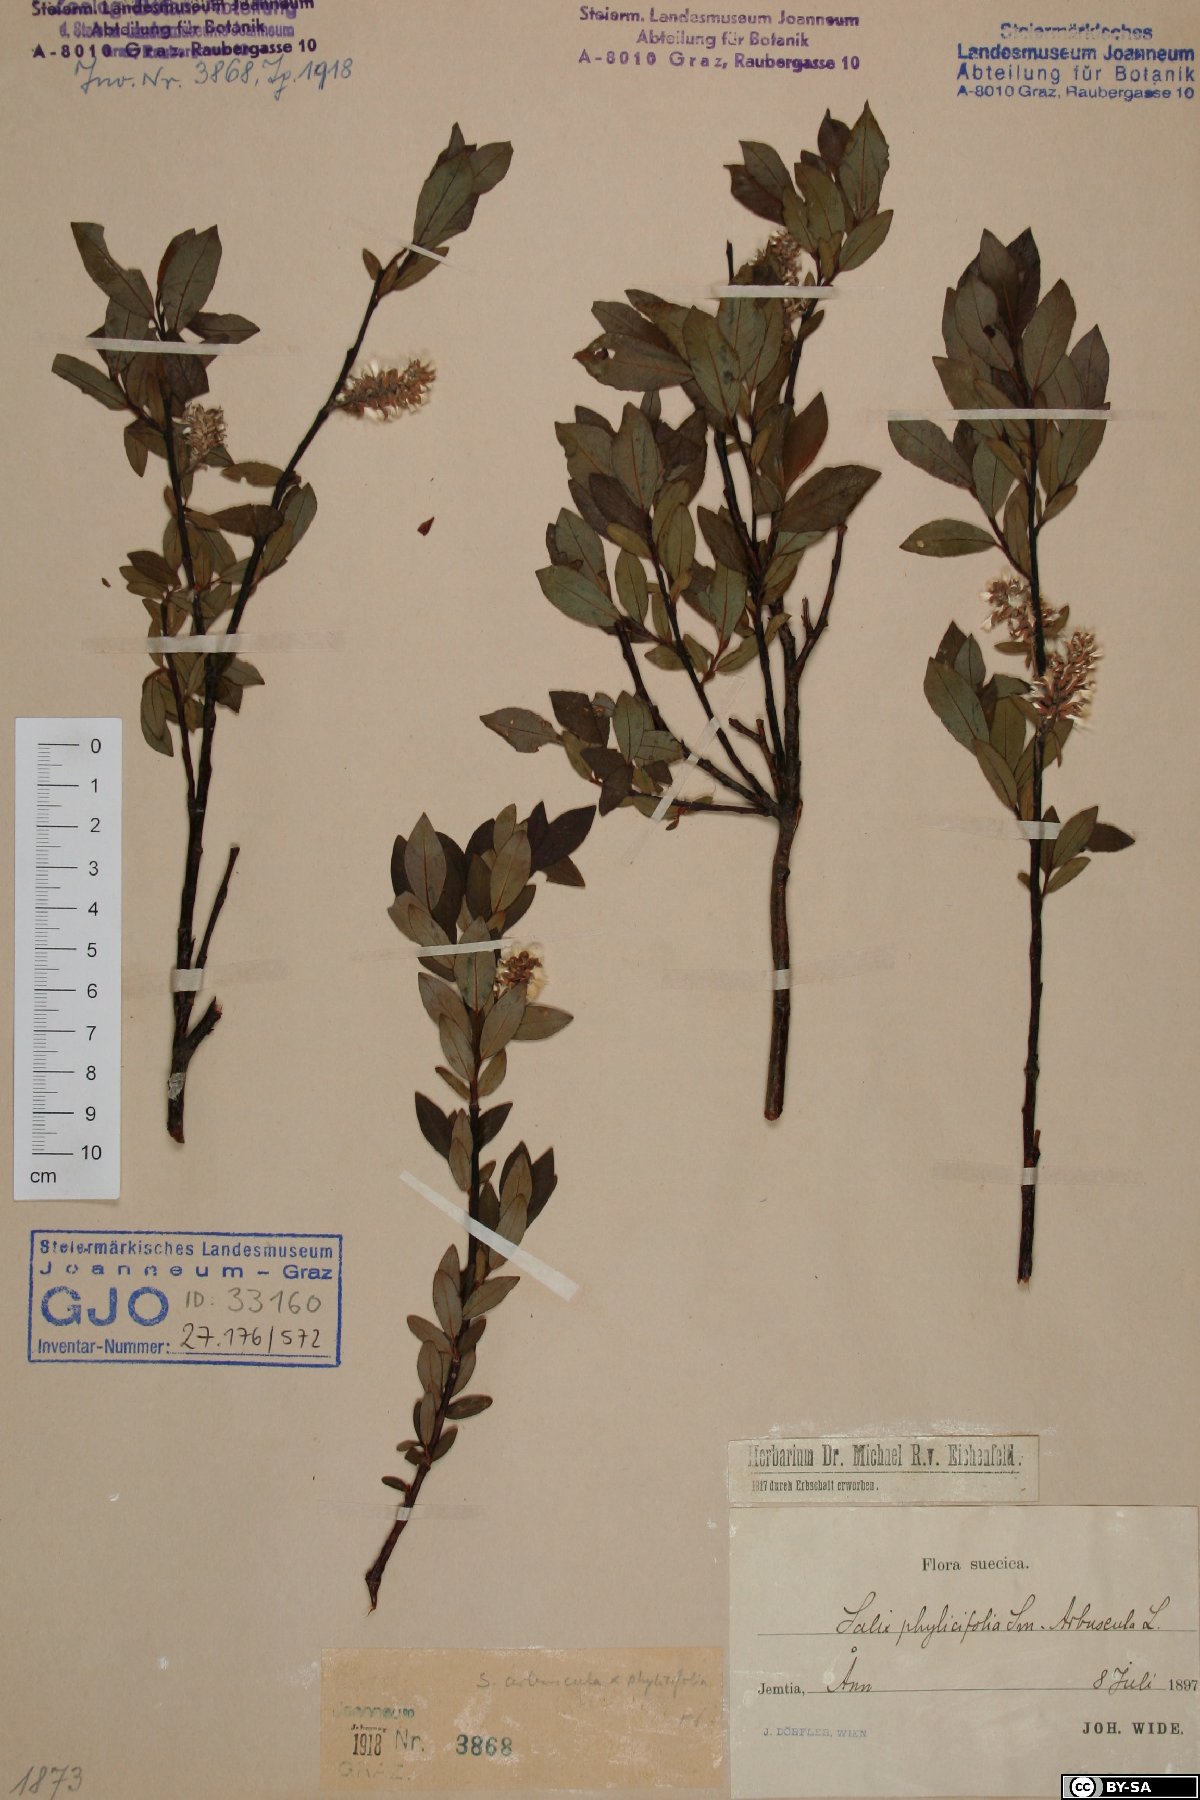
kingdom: Plantae
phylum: Tracheophyta
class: Magnoliopsida
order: Malpighiales
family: Salicaceae
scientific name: Salicaceae
